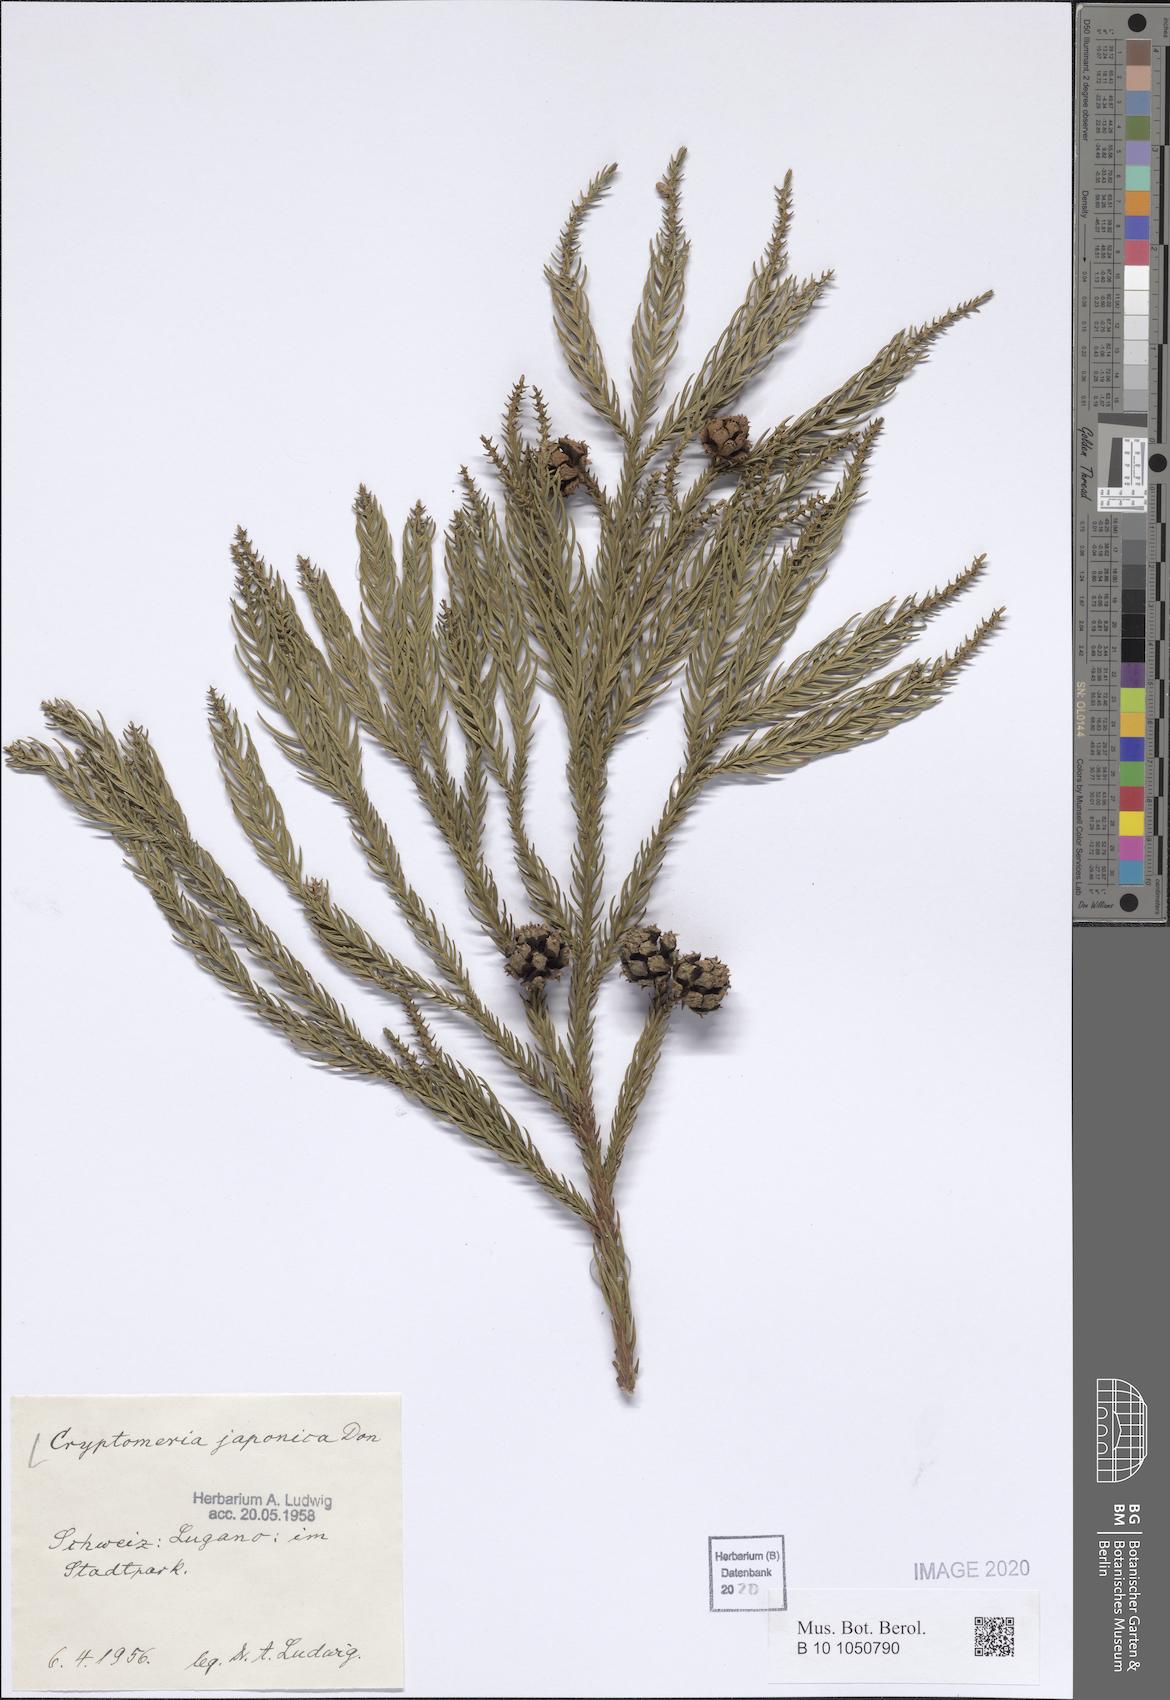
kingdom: Plantae
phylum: Tracheophyta
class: Pinopsida
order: Pinales
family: Cupressaceae
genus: Cryptomeria
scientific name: Cryptomeria japonica
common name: Japanese cedar
